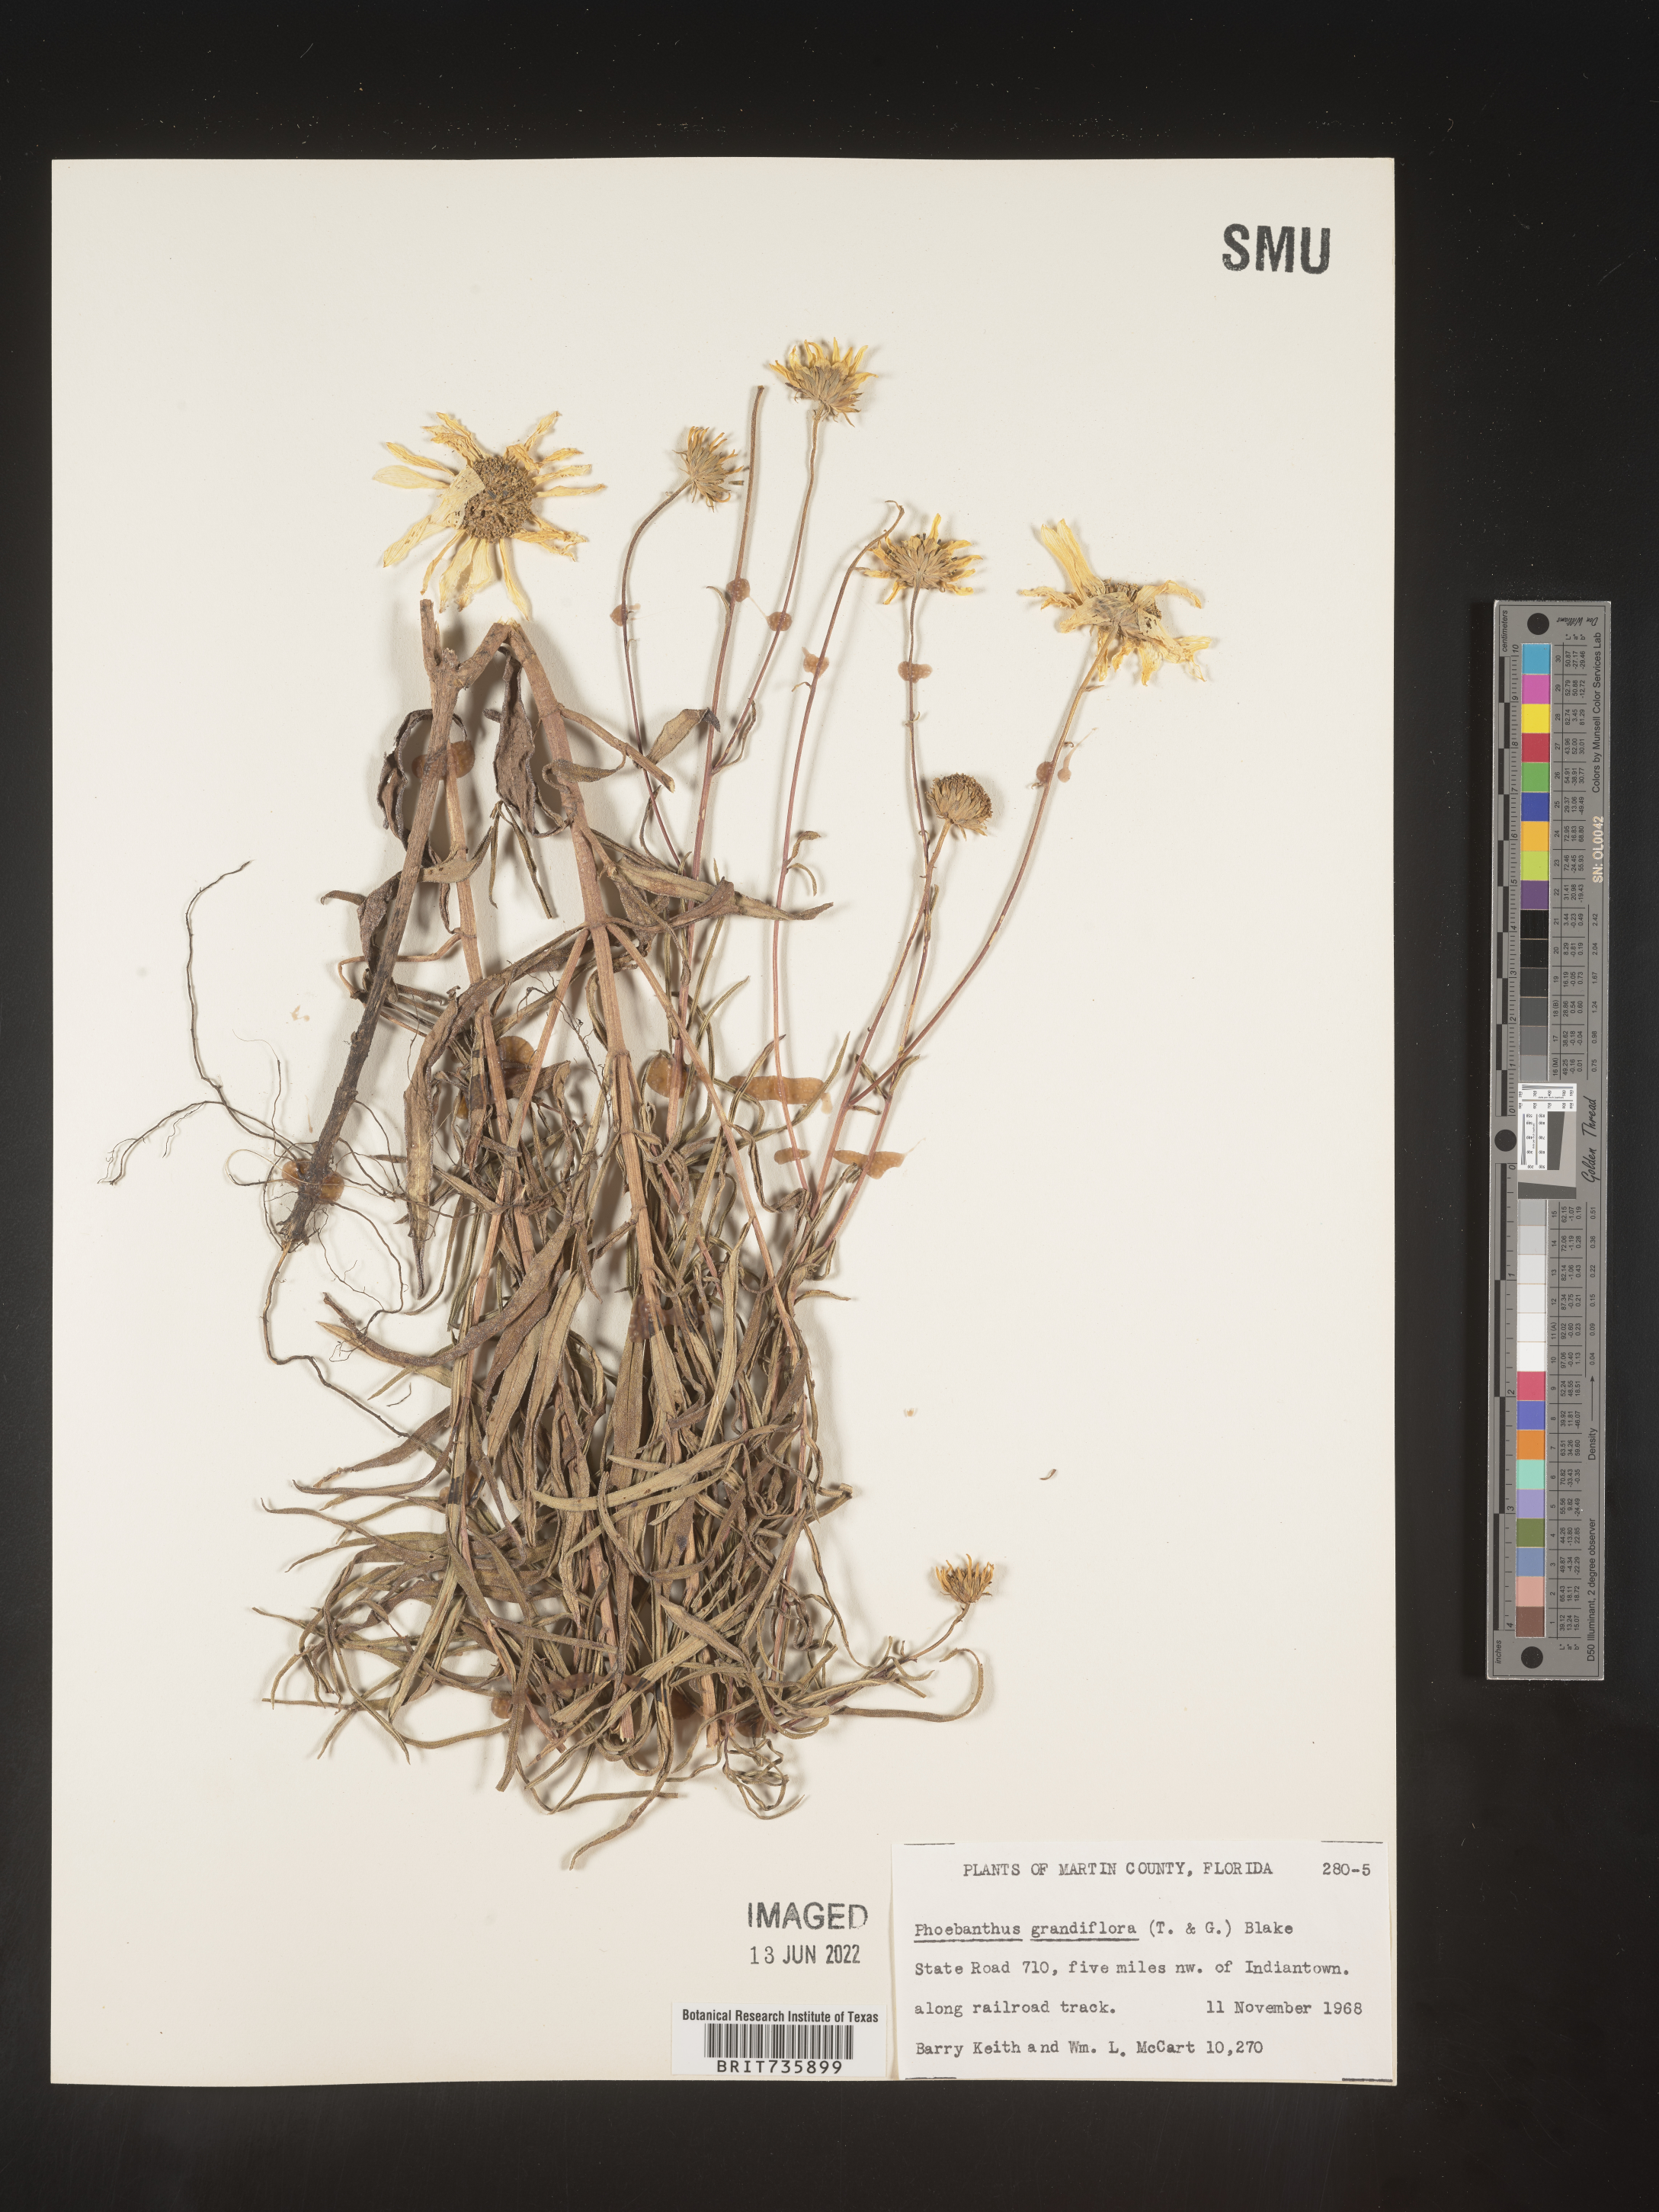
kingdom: Plantae
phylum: Tracheophyta
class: Magnoliopsida
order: Asterales
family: Asteraceae
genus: Phoebanthus
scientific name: Phoebanthus grandiflora
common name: Florida false sunflower
